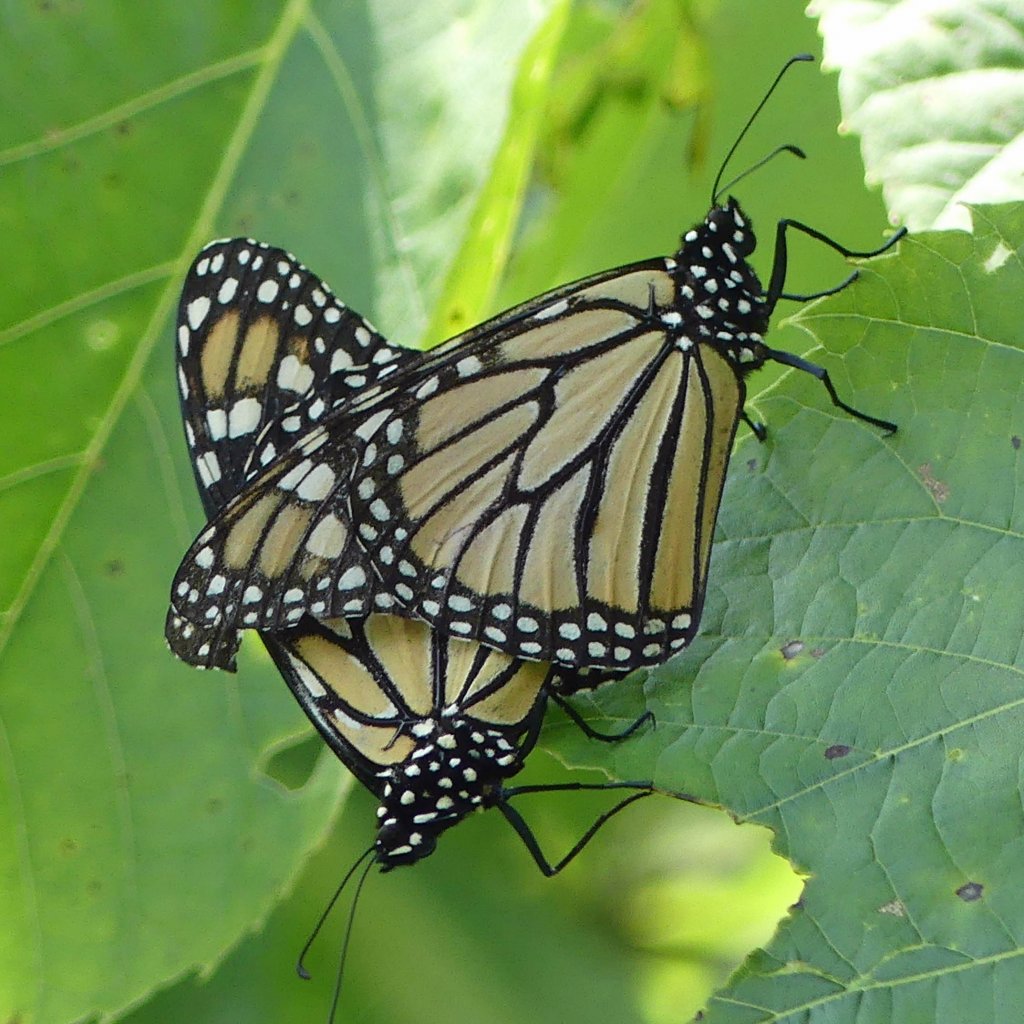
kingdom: Animalia
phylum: Arthropoda
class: Insecta
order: Lepidoptera
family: Nymphalidae
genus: Danaus
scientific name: Danaus plexippus
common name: Monarch
